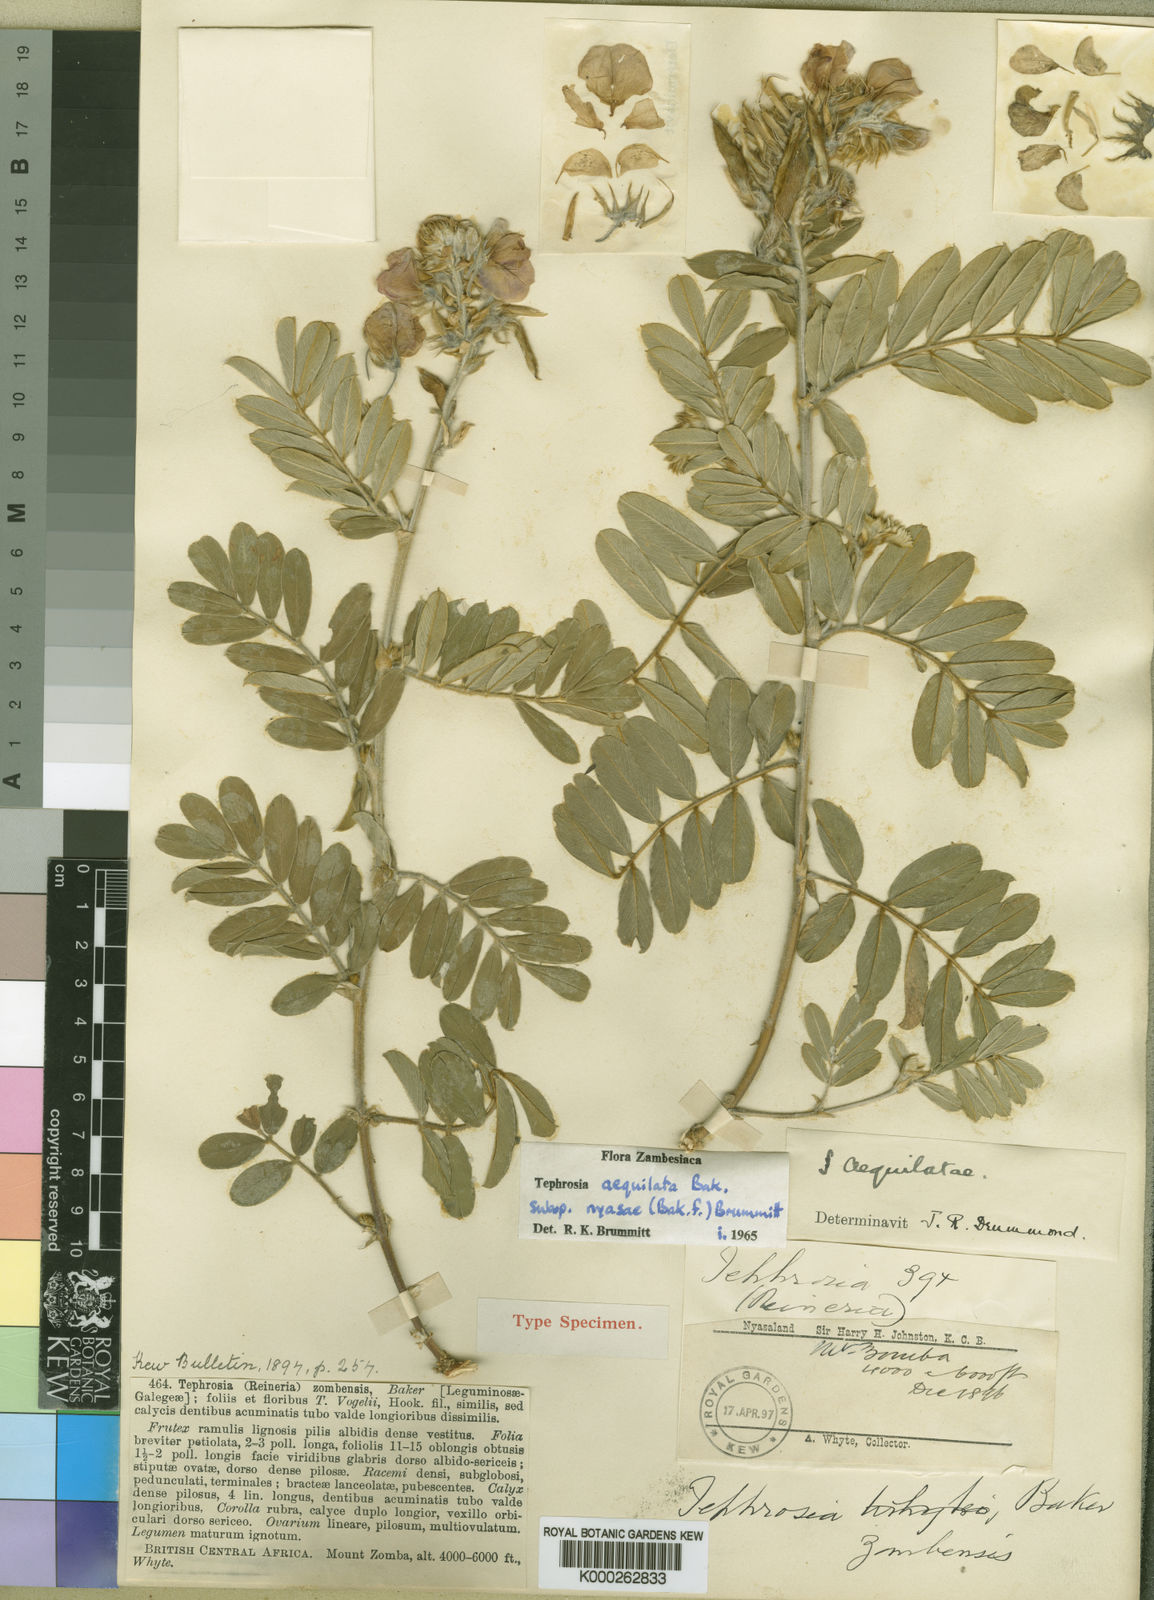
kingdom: Plantae
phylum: Tracheophyta
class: Magnoliopsida
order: Fabales
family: Fabaceae
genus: Tephrosia
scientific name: Tephrosia aequilata
